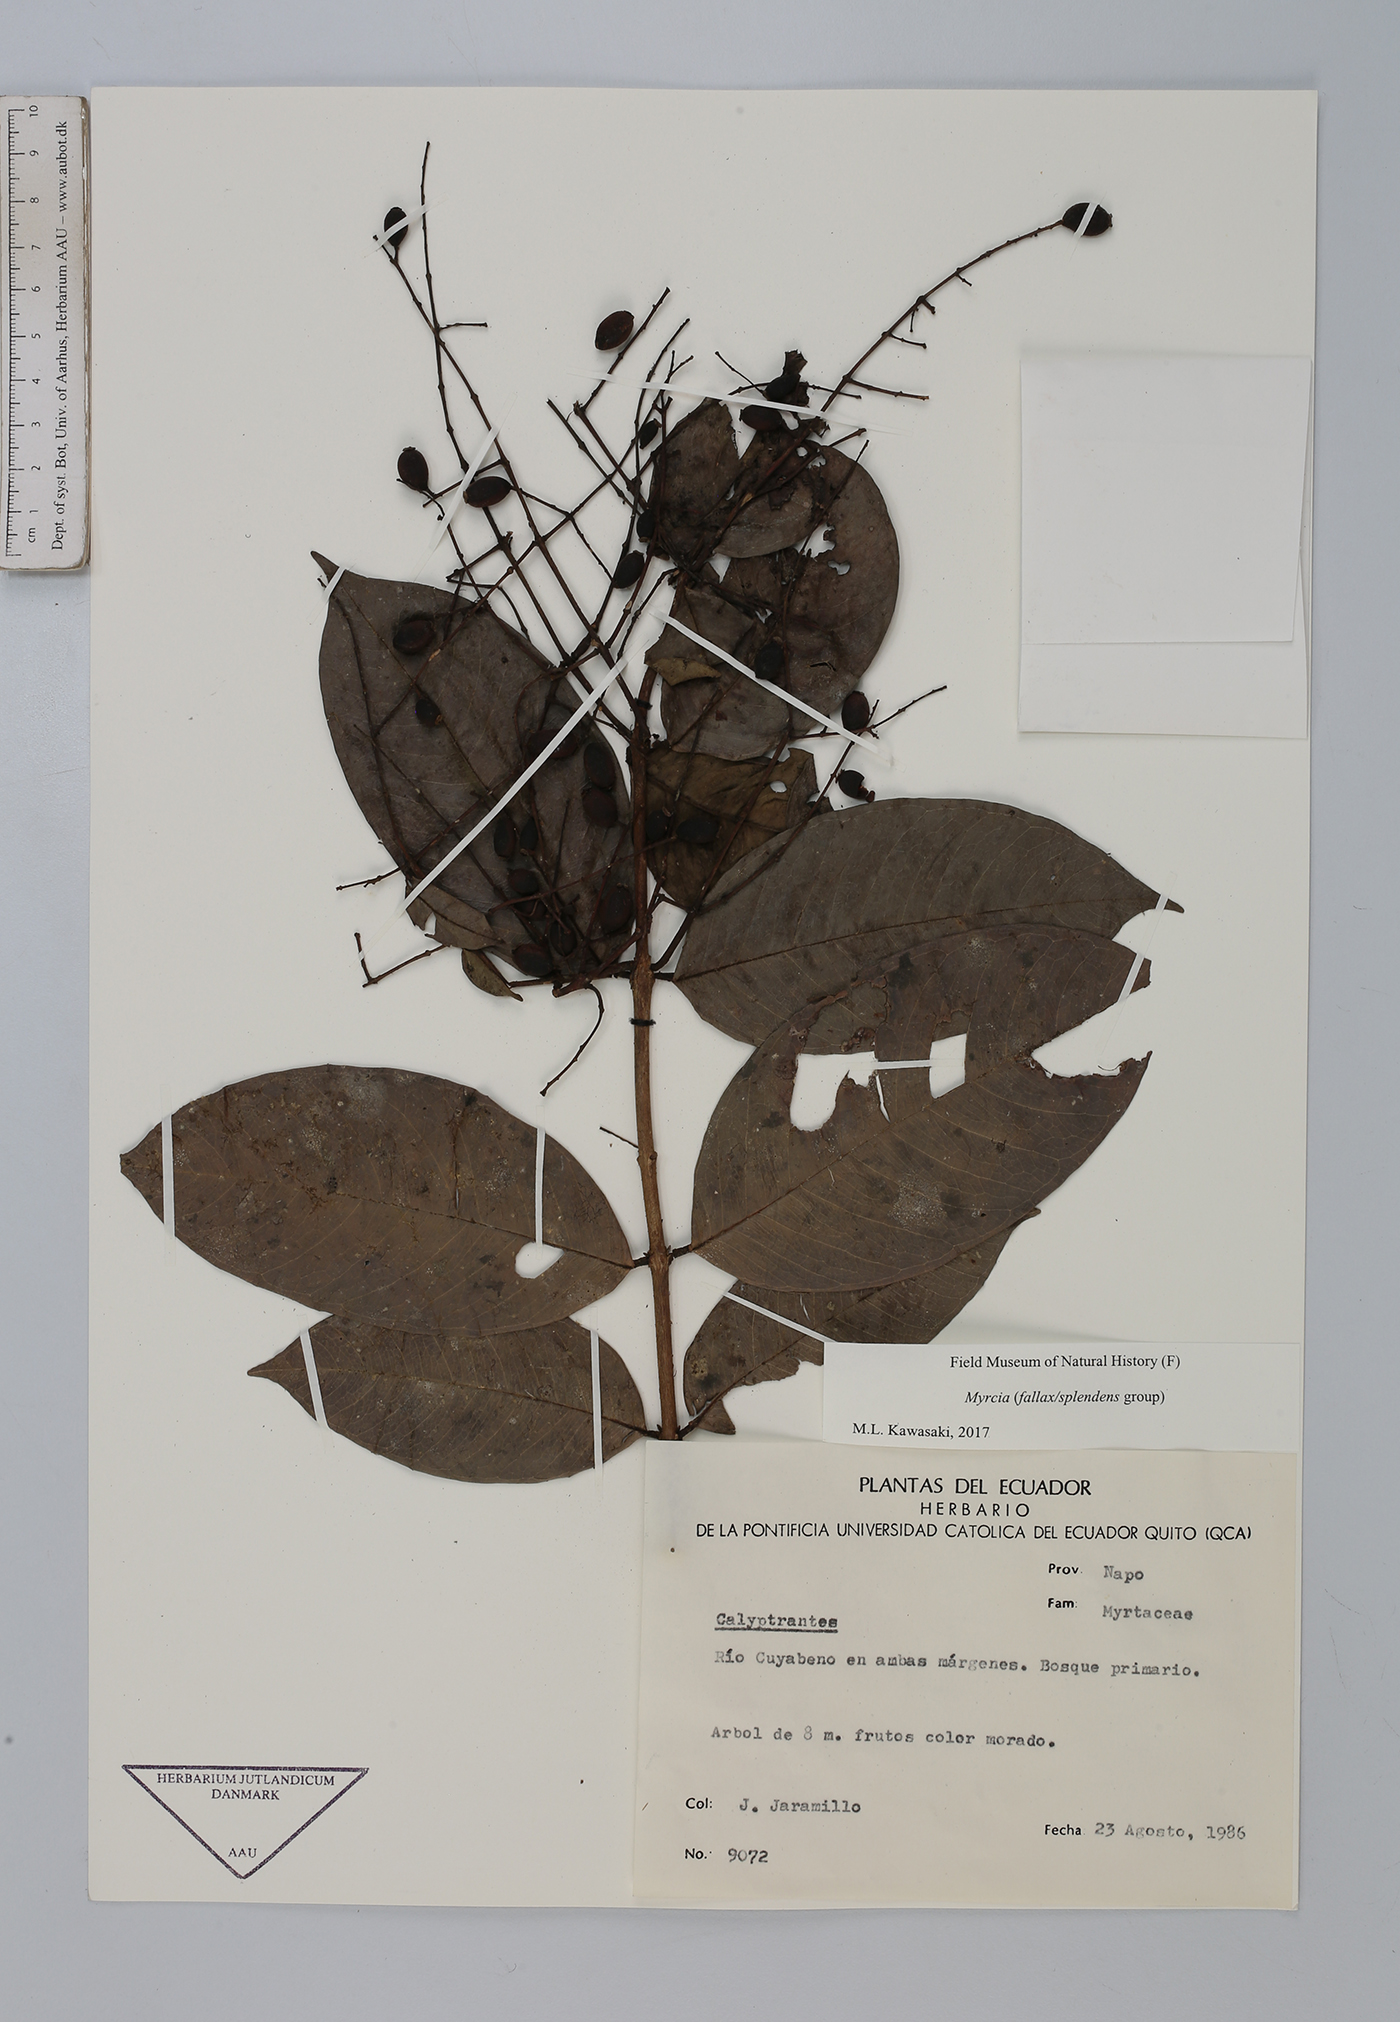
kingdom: Plantae
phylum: Tracheophyta
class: Magnoliopsida
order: Myrtales
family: Myrtaceae
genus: Myrcia
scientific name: Myrcia
